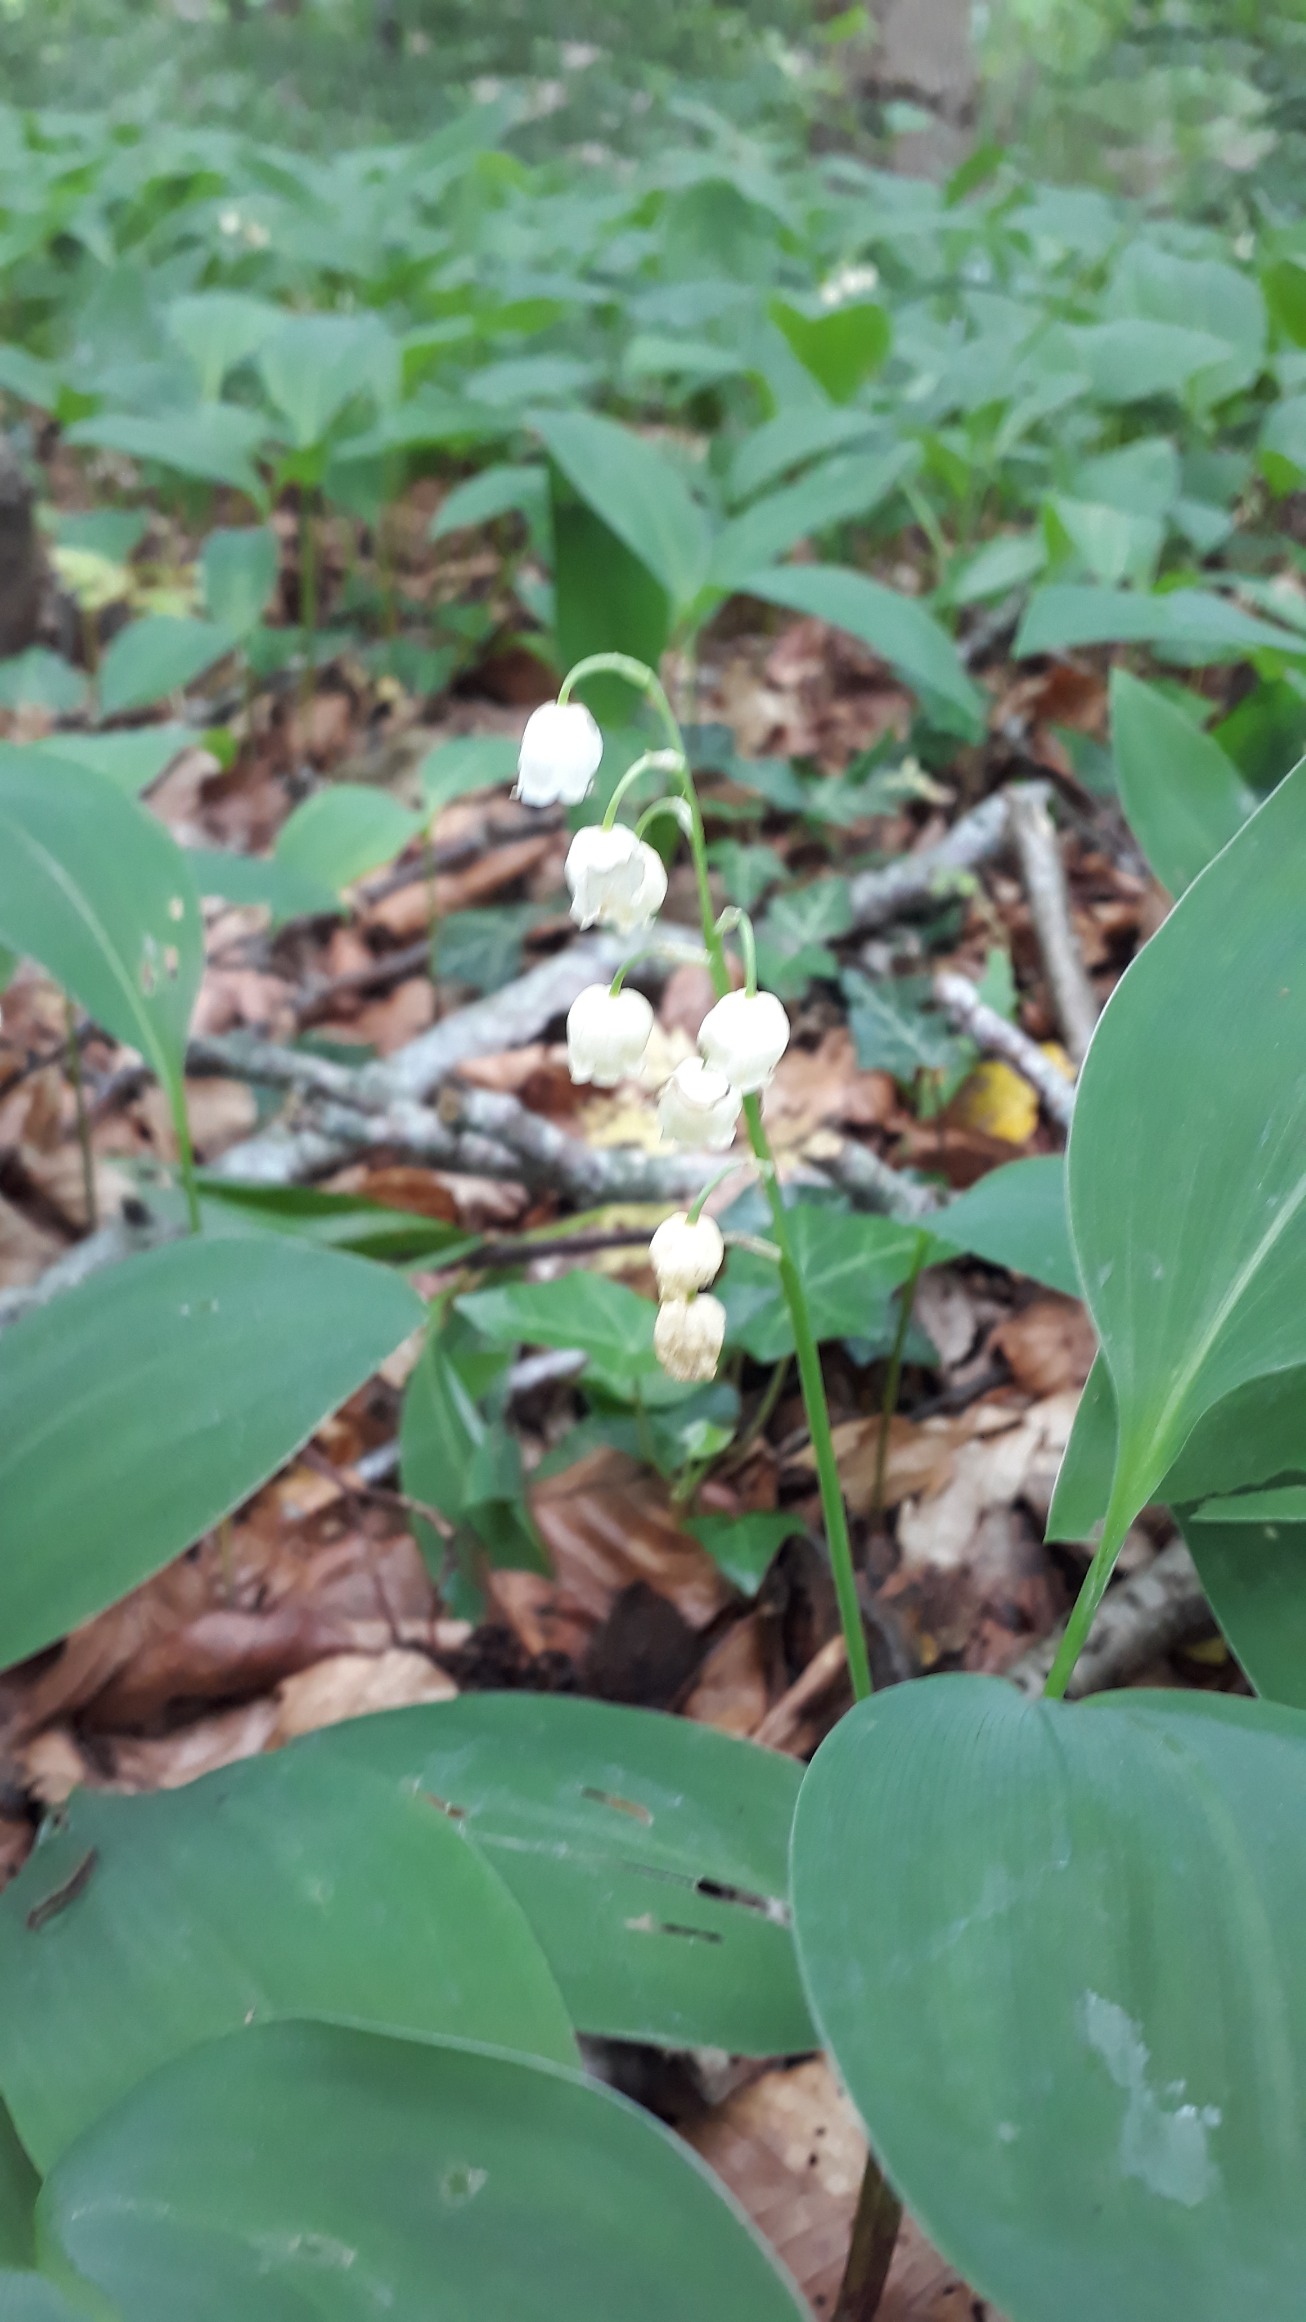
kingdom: Plantae
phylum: Tracheophyta
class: Liliopsida
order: Asparagales
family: Asparagaceae
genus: Convallaria
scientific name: Convallaria majalis
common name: Liljekonval
